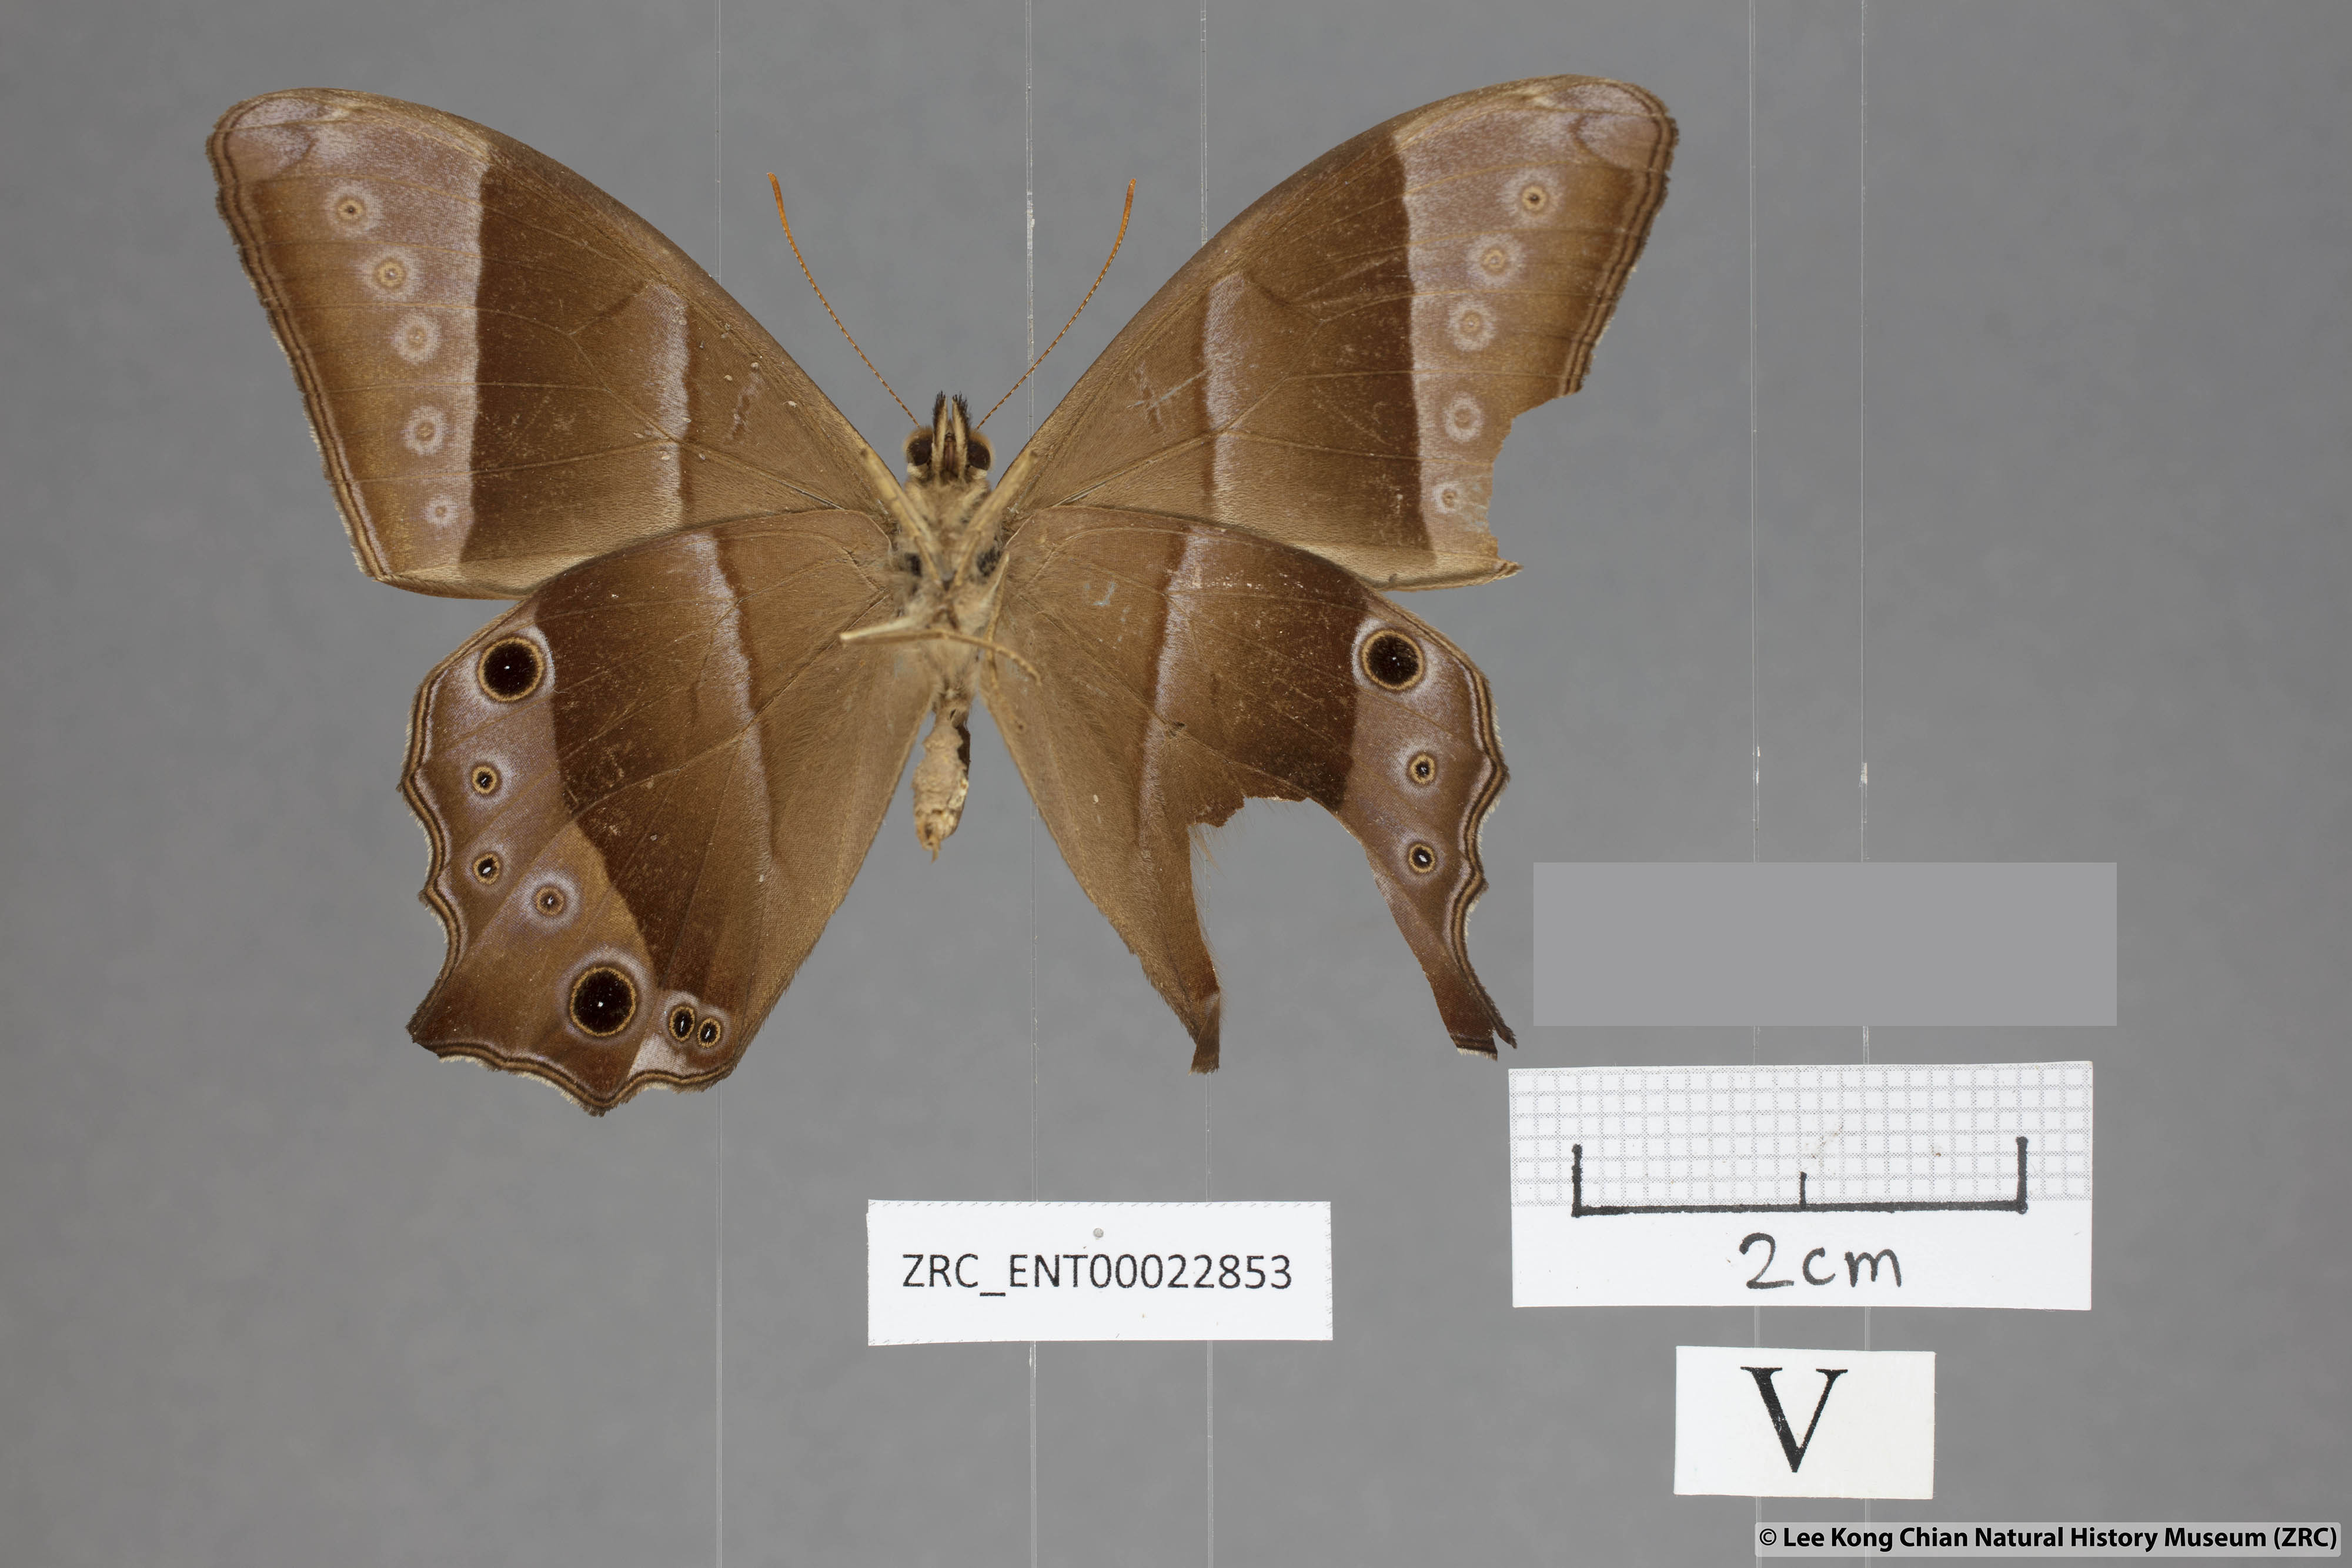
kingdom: Animalia
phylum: Arthropoda
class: Insecta
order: Lepidoptera
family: Nymphalidae
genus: Lethe
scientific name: Lethe vindhya
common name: Black forester
